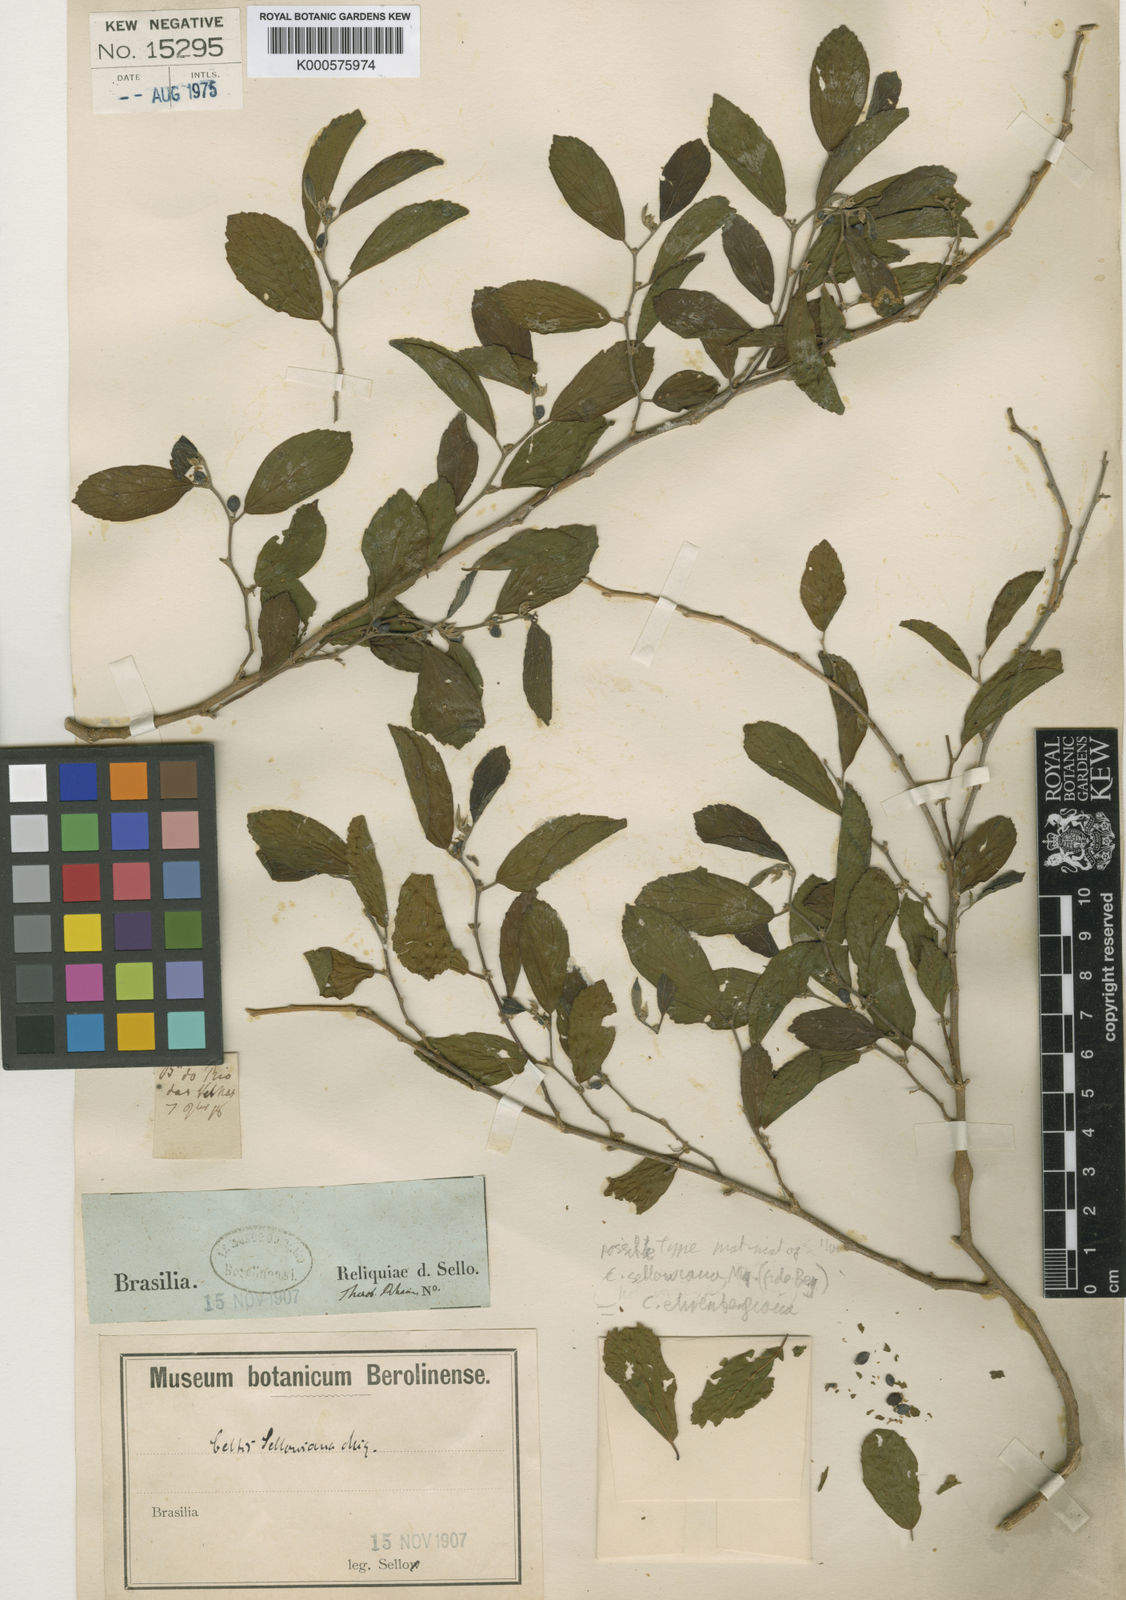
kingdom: Plantae
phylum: Tracheophyta
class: Magnoliopsida
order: Rosales
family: Cannabaceae
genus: Celtis
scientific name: Celtis tala
